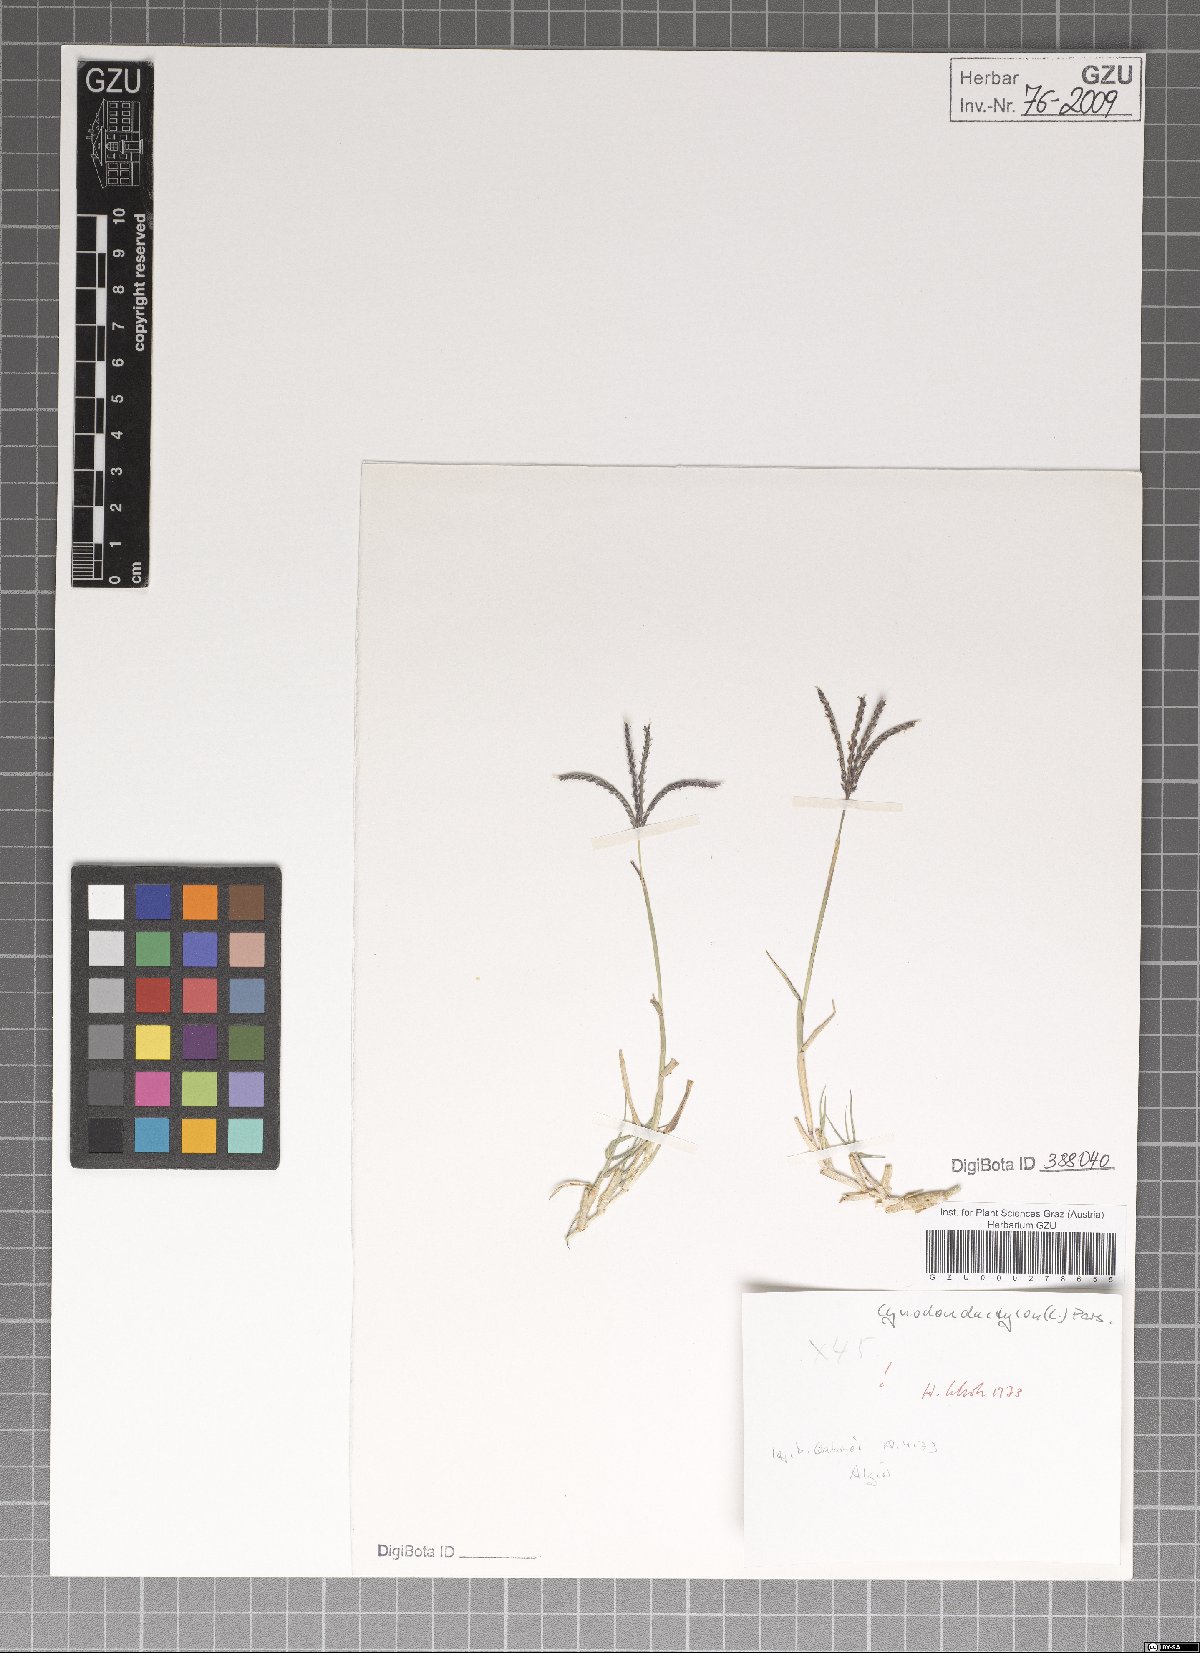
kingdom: Plantae
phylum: Tracheophyta
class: Liliopsida
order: Poales
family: Poaceae
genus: Cynodon
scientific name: Cynodon dactylon
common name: Bermuda grass
